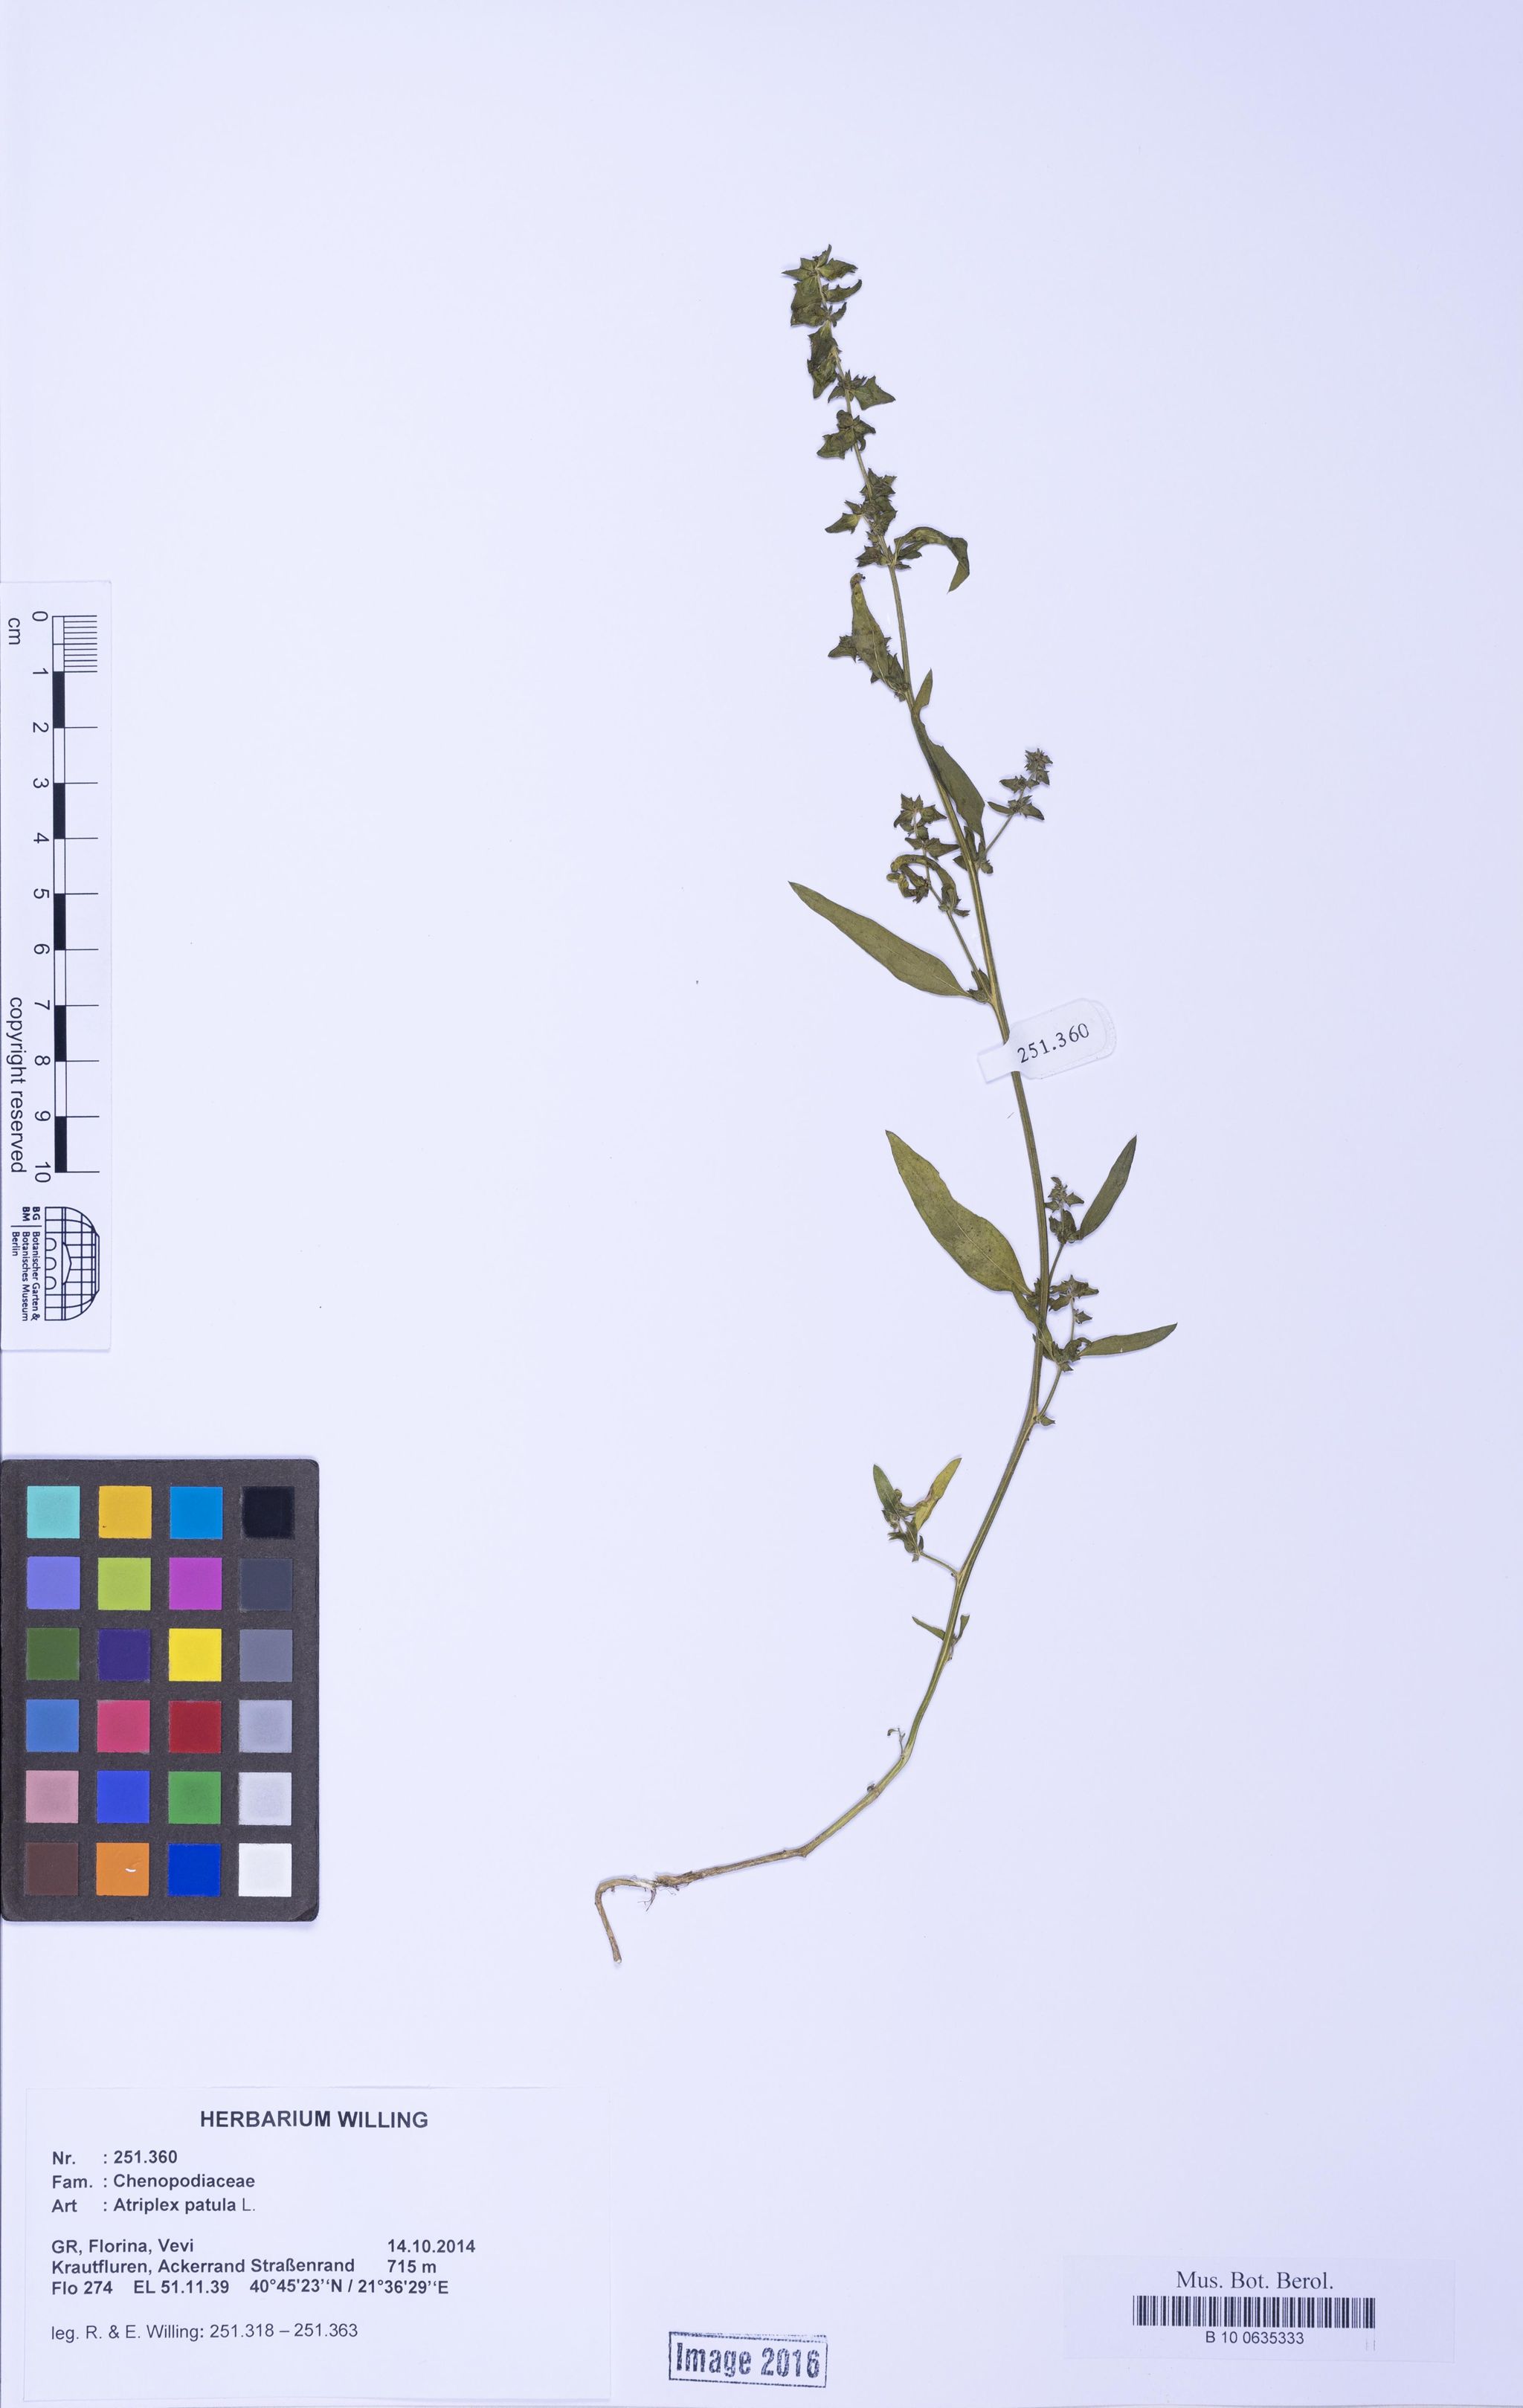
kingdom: Plantae
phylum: Tracheophyta
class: Magnoliopsida
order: Caryophyllales
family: Amaranthaceae
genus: Atriplex
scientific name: Atriplex patula
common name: Common orache
